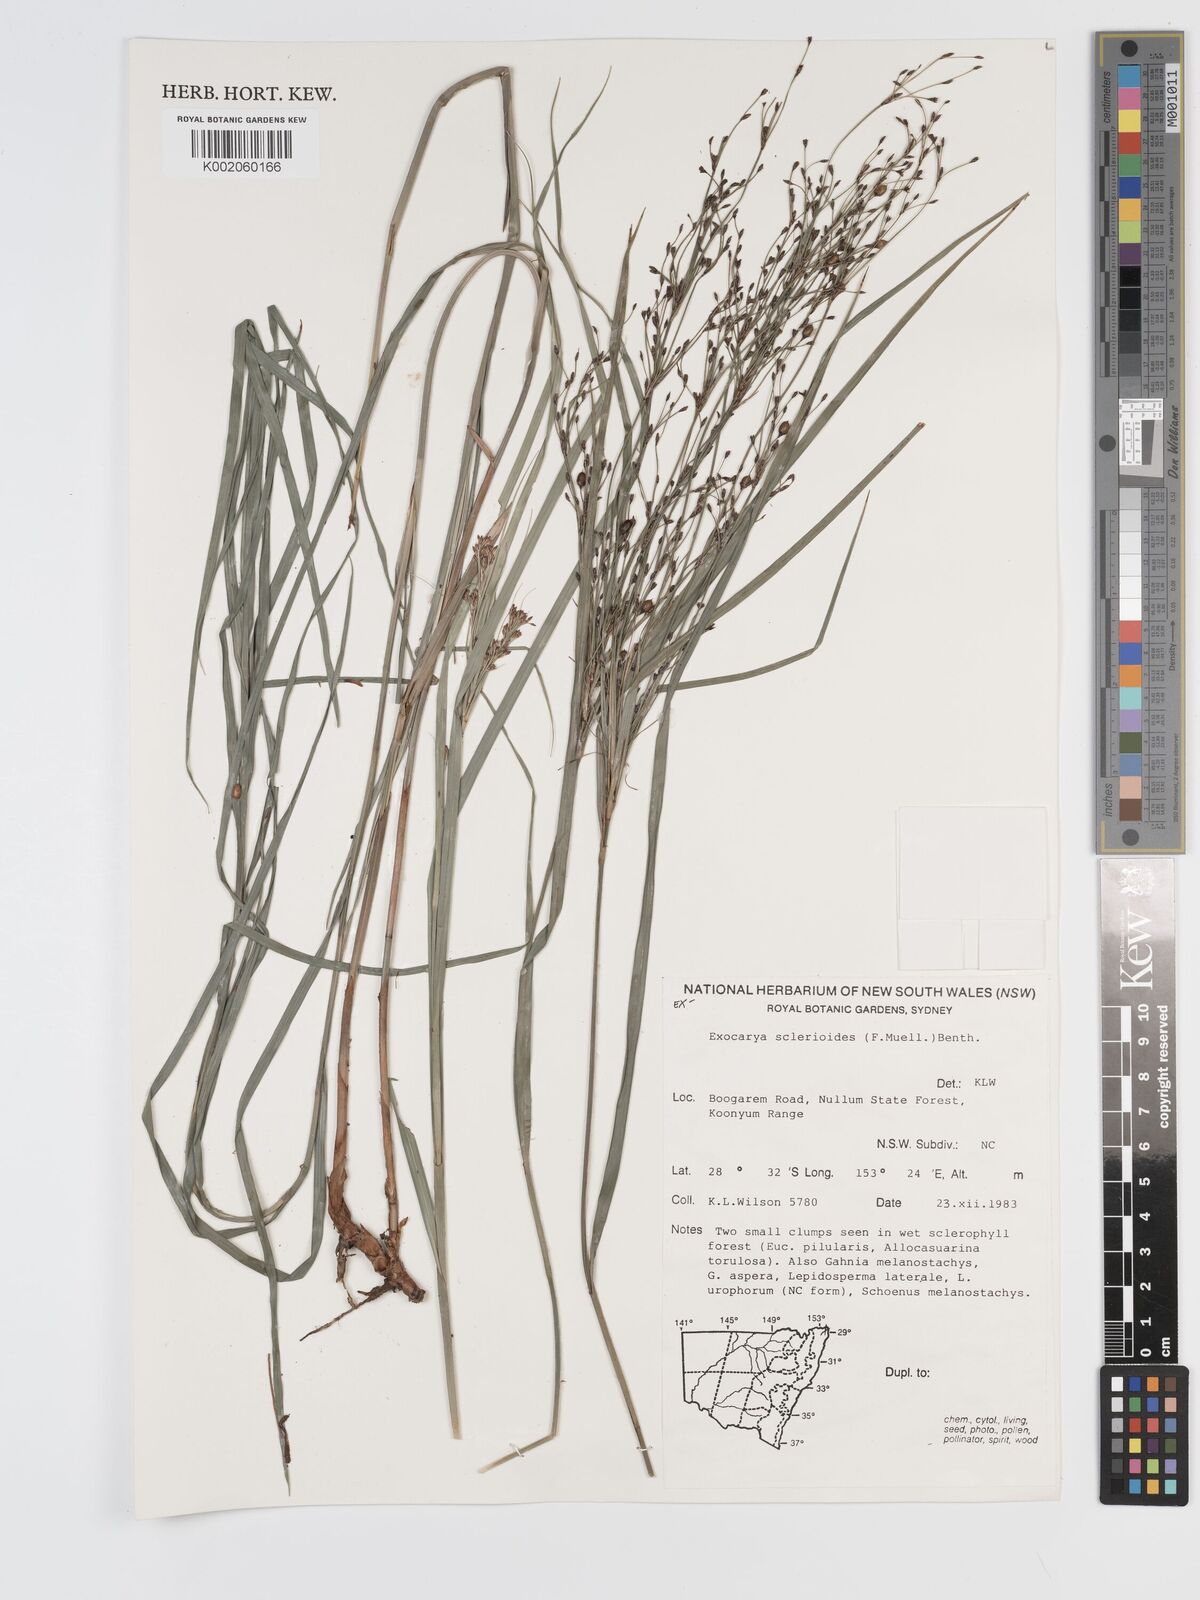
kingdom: Plantae
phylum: Tracheophyta
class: Liliopsida
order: Poales
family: Cyperaceae
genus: Exocarya
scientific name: Exocarya sclerioides
